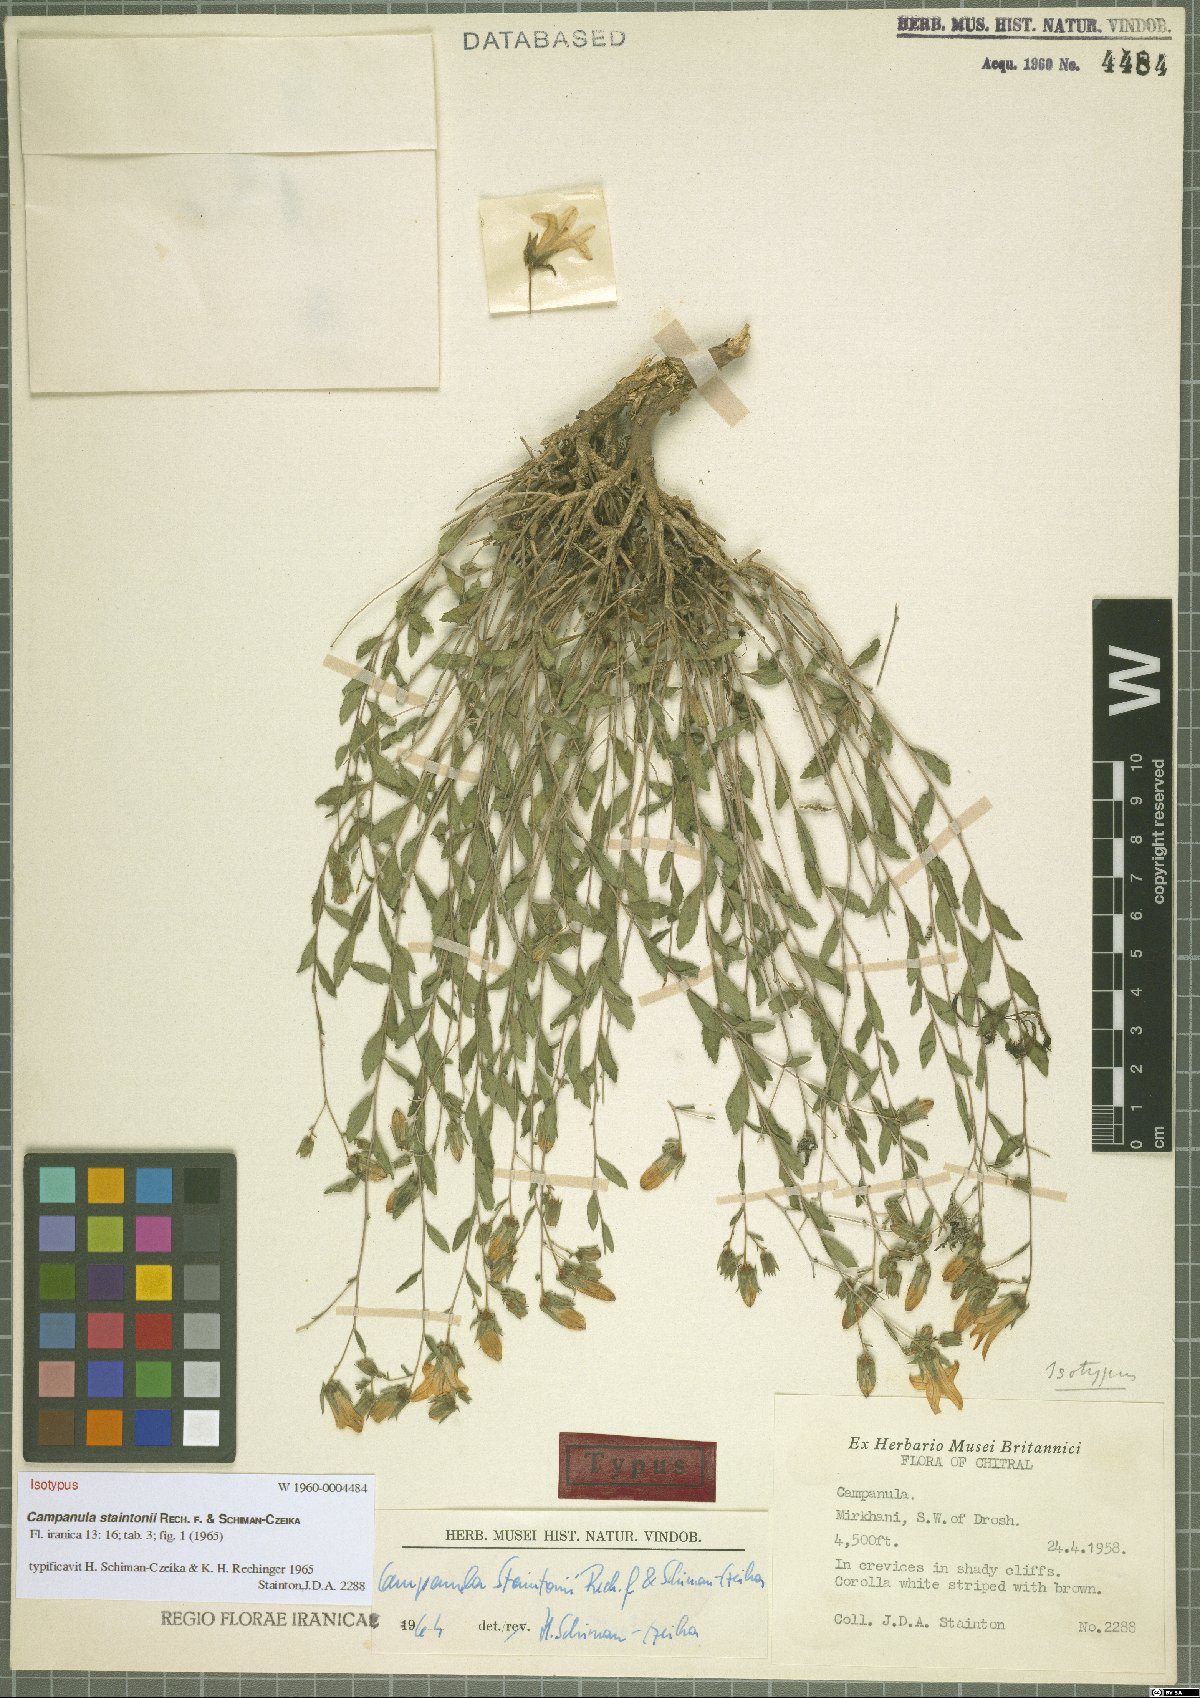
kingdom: Plantae
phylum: Tracheophyta
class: Magnoliopsida
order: Asterales
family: Campanulaceae
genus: Campanula
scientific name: Campanula staintonii
